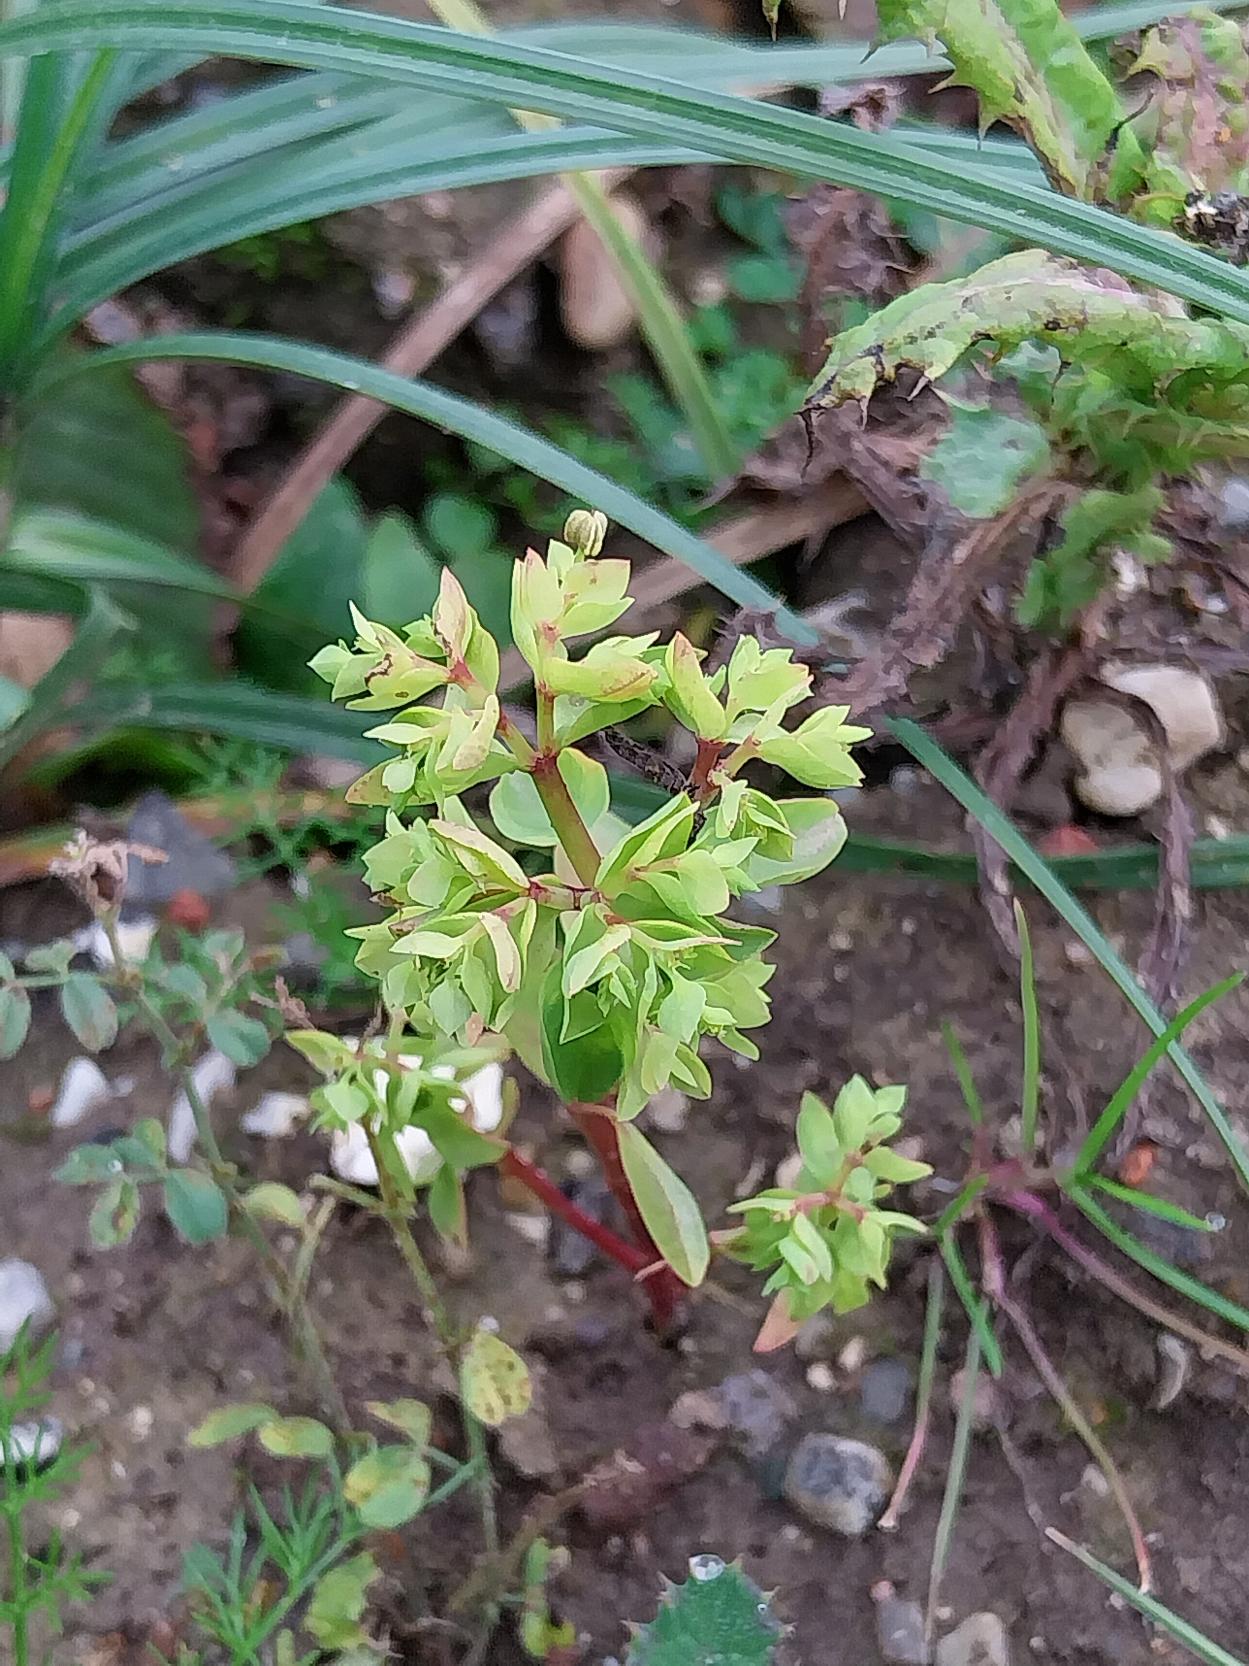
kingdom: Plantae
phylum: Tracheophyta
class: Magnoliopsida
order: Malpighiales
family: Euphorbiaceae
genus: Euphorbia
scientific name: Euphorbia peplus
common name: Gaffel-vortemælk
